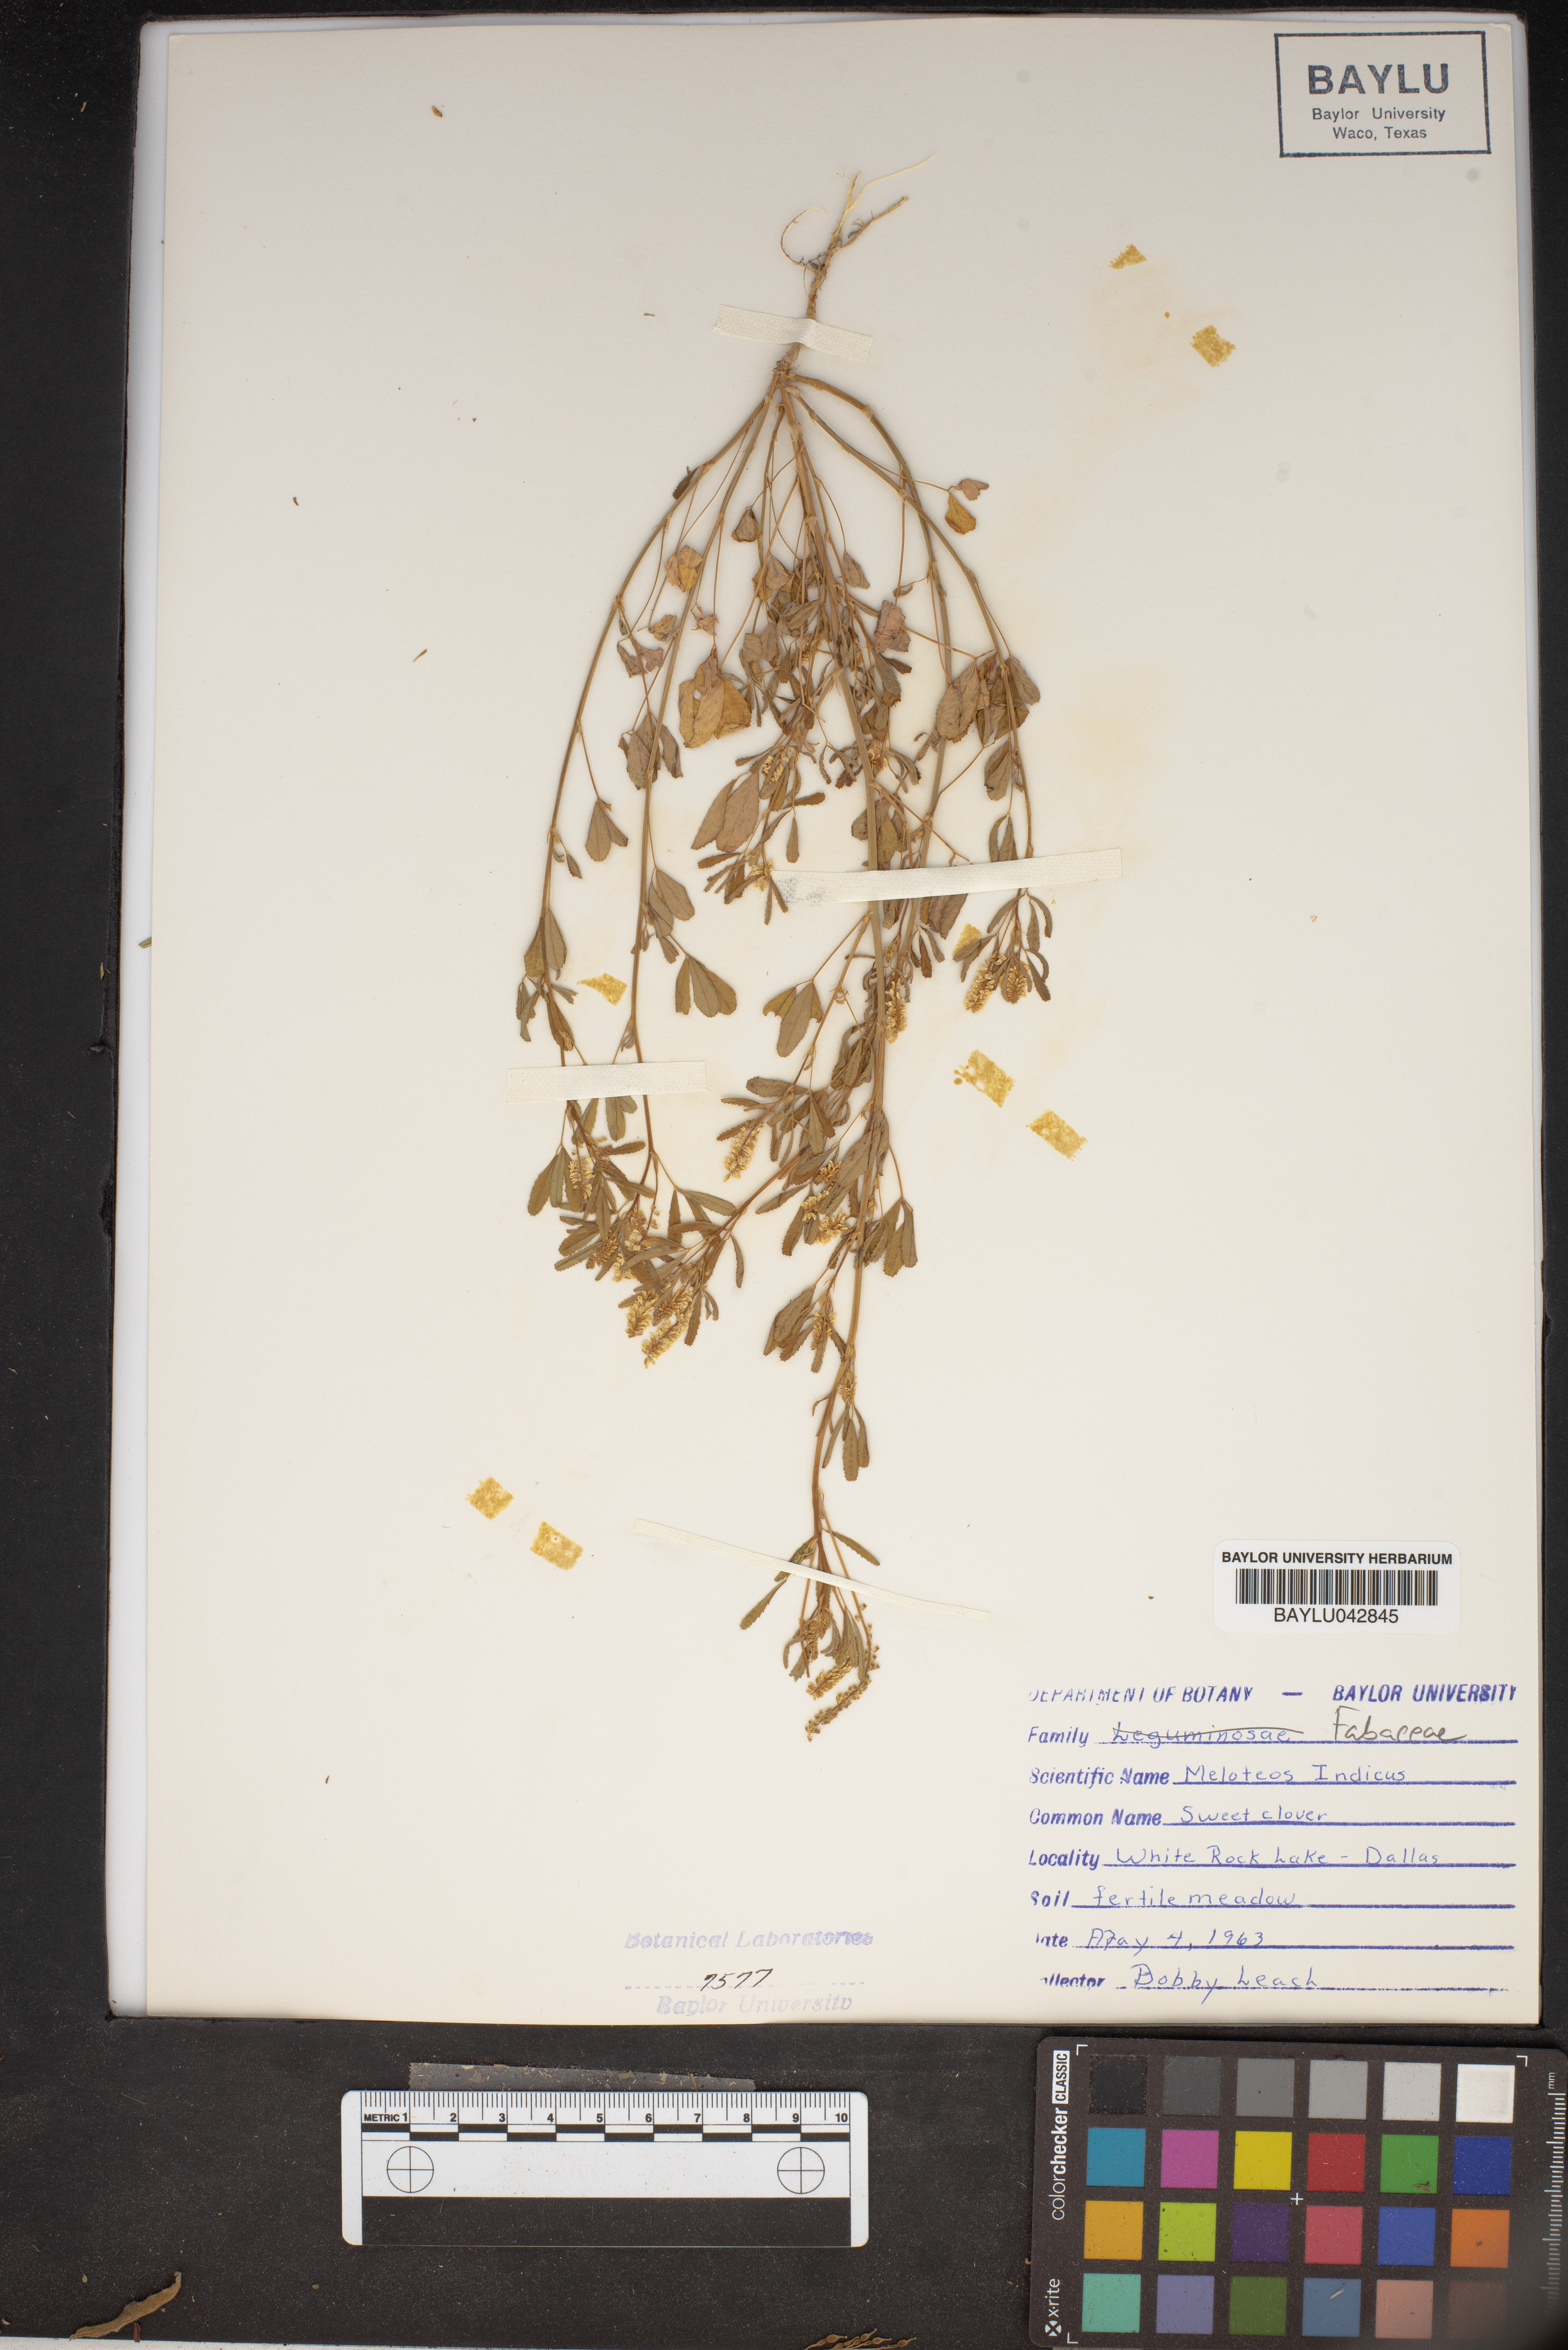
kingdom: Plantae
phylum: Tracheophyta
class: Magnoliopsida
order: Fabales
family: Fabaceae
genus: Melilotus
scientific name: Melilotus indicus
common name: Small melilot
